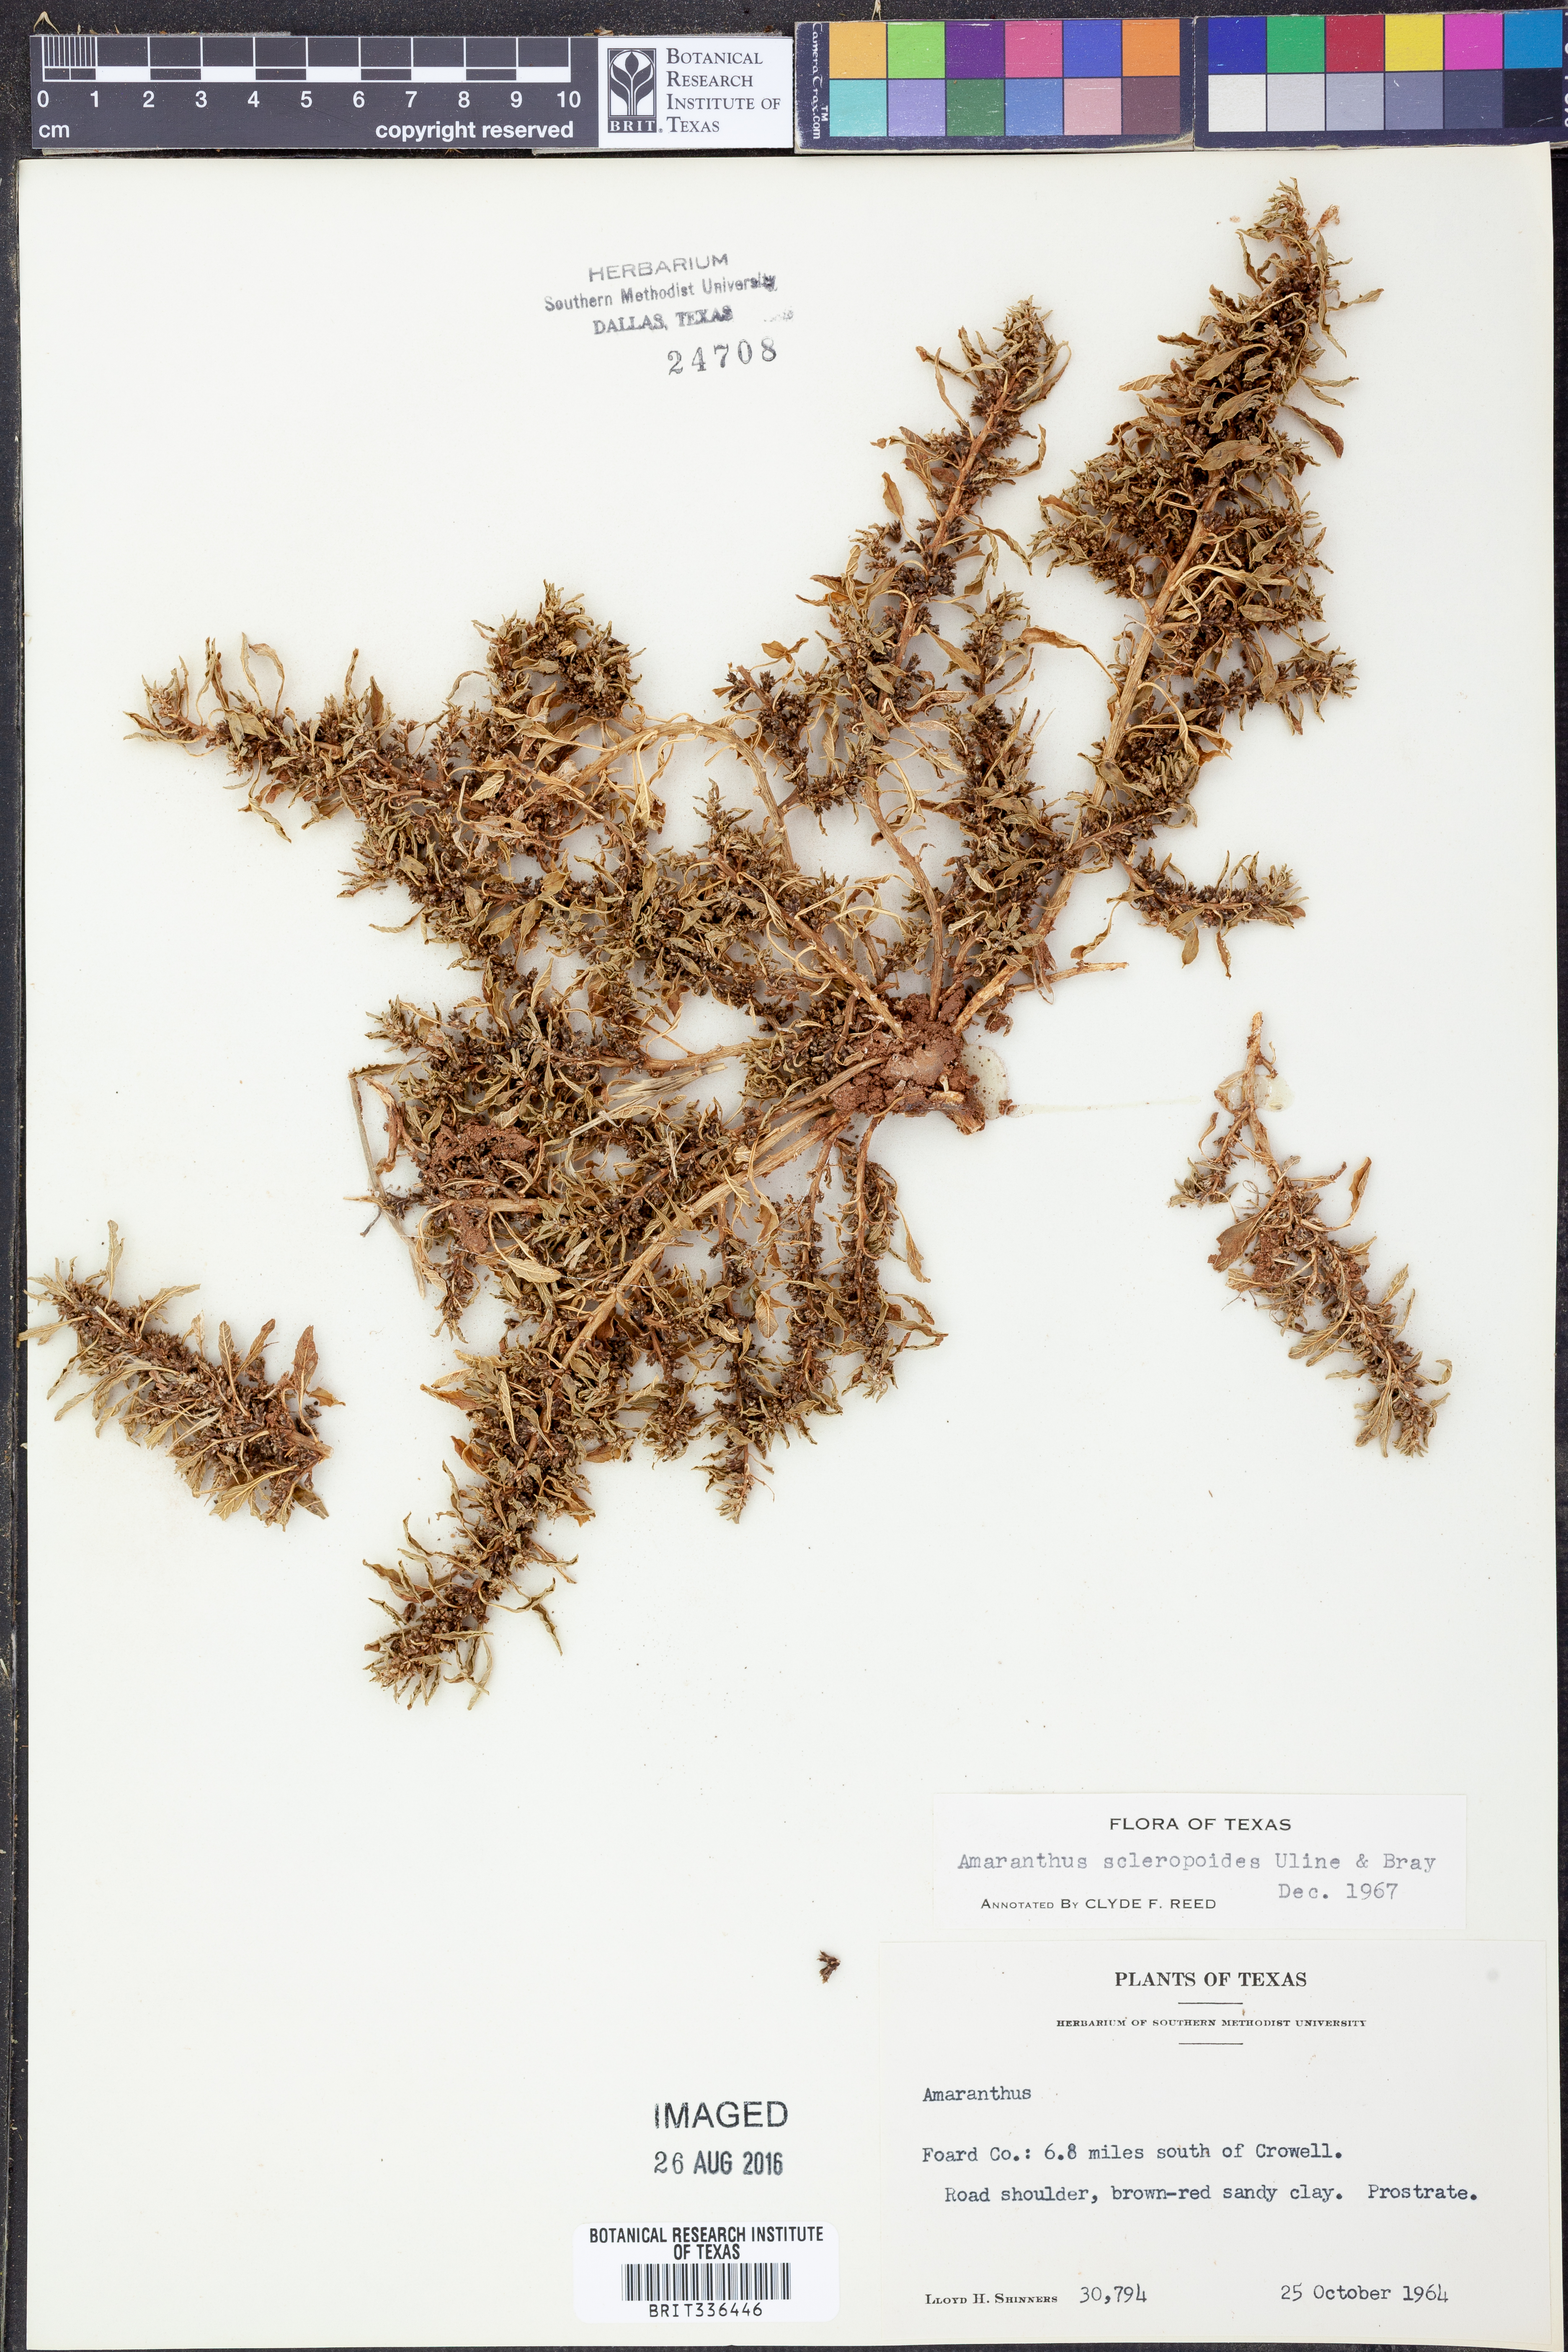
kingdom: Plantae
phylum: Tracheophyta
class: Magnoliopsida
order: Caryophyllales
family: Amaranthaceae
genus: Amaranthus
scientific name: Amaranthus scleropoides
